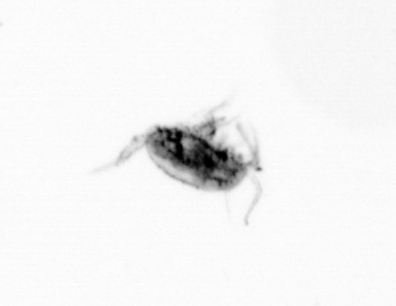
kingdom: Animalia
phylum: Arthropoda
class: Copepoda
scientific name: Copepoda
